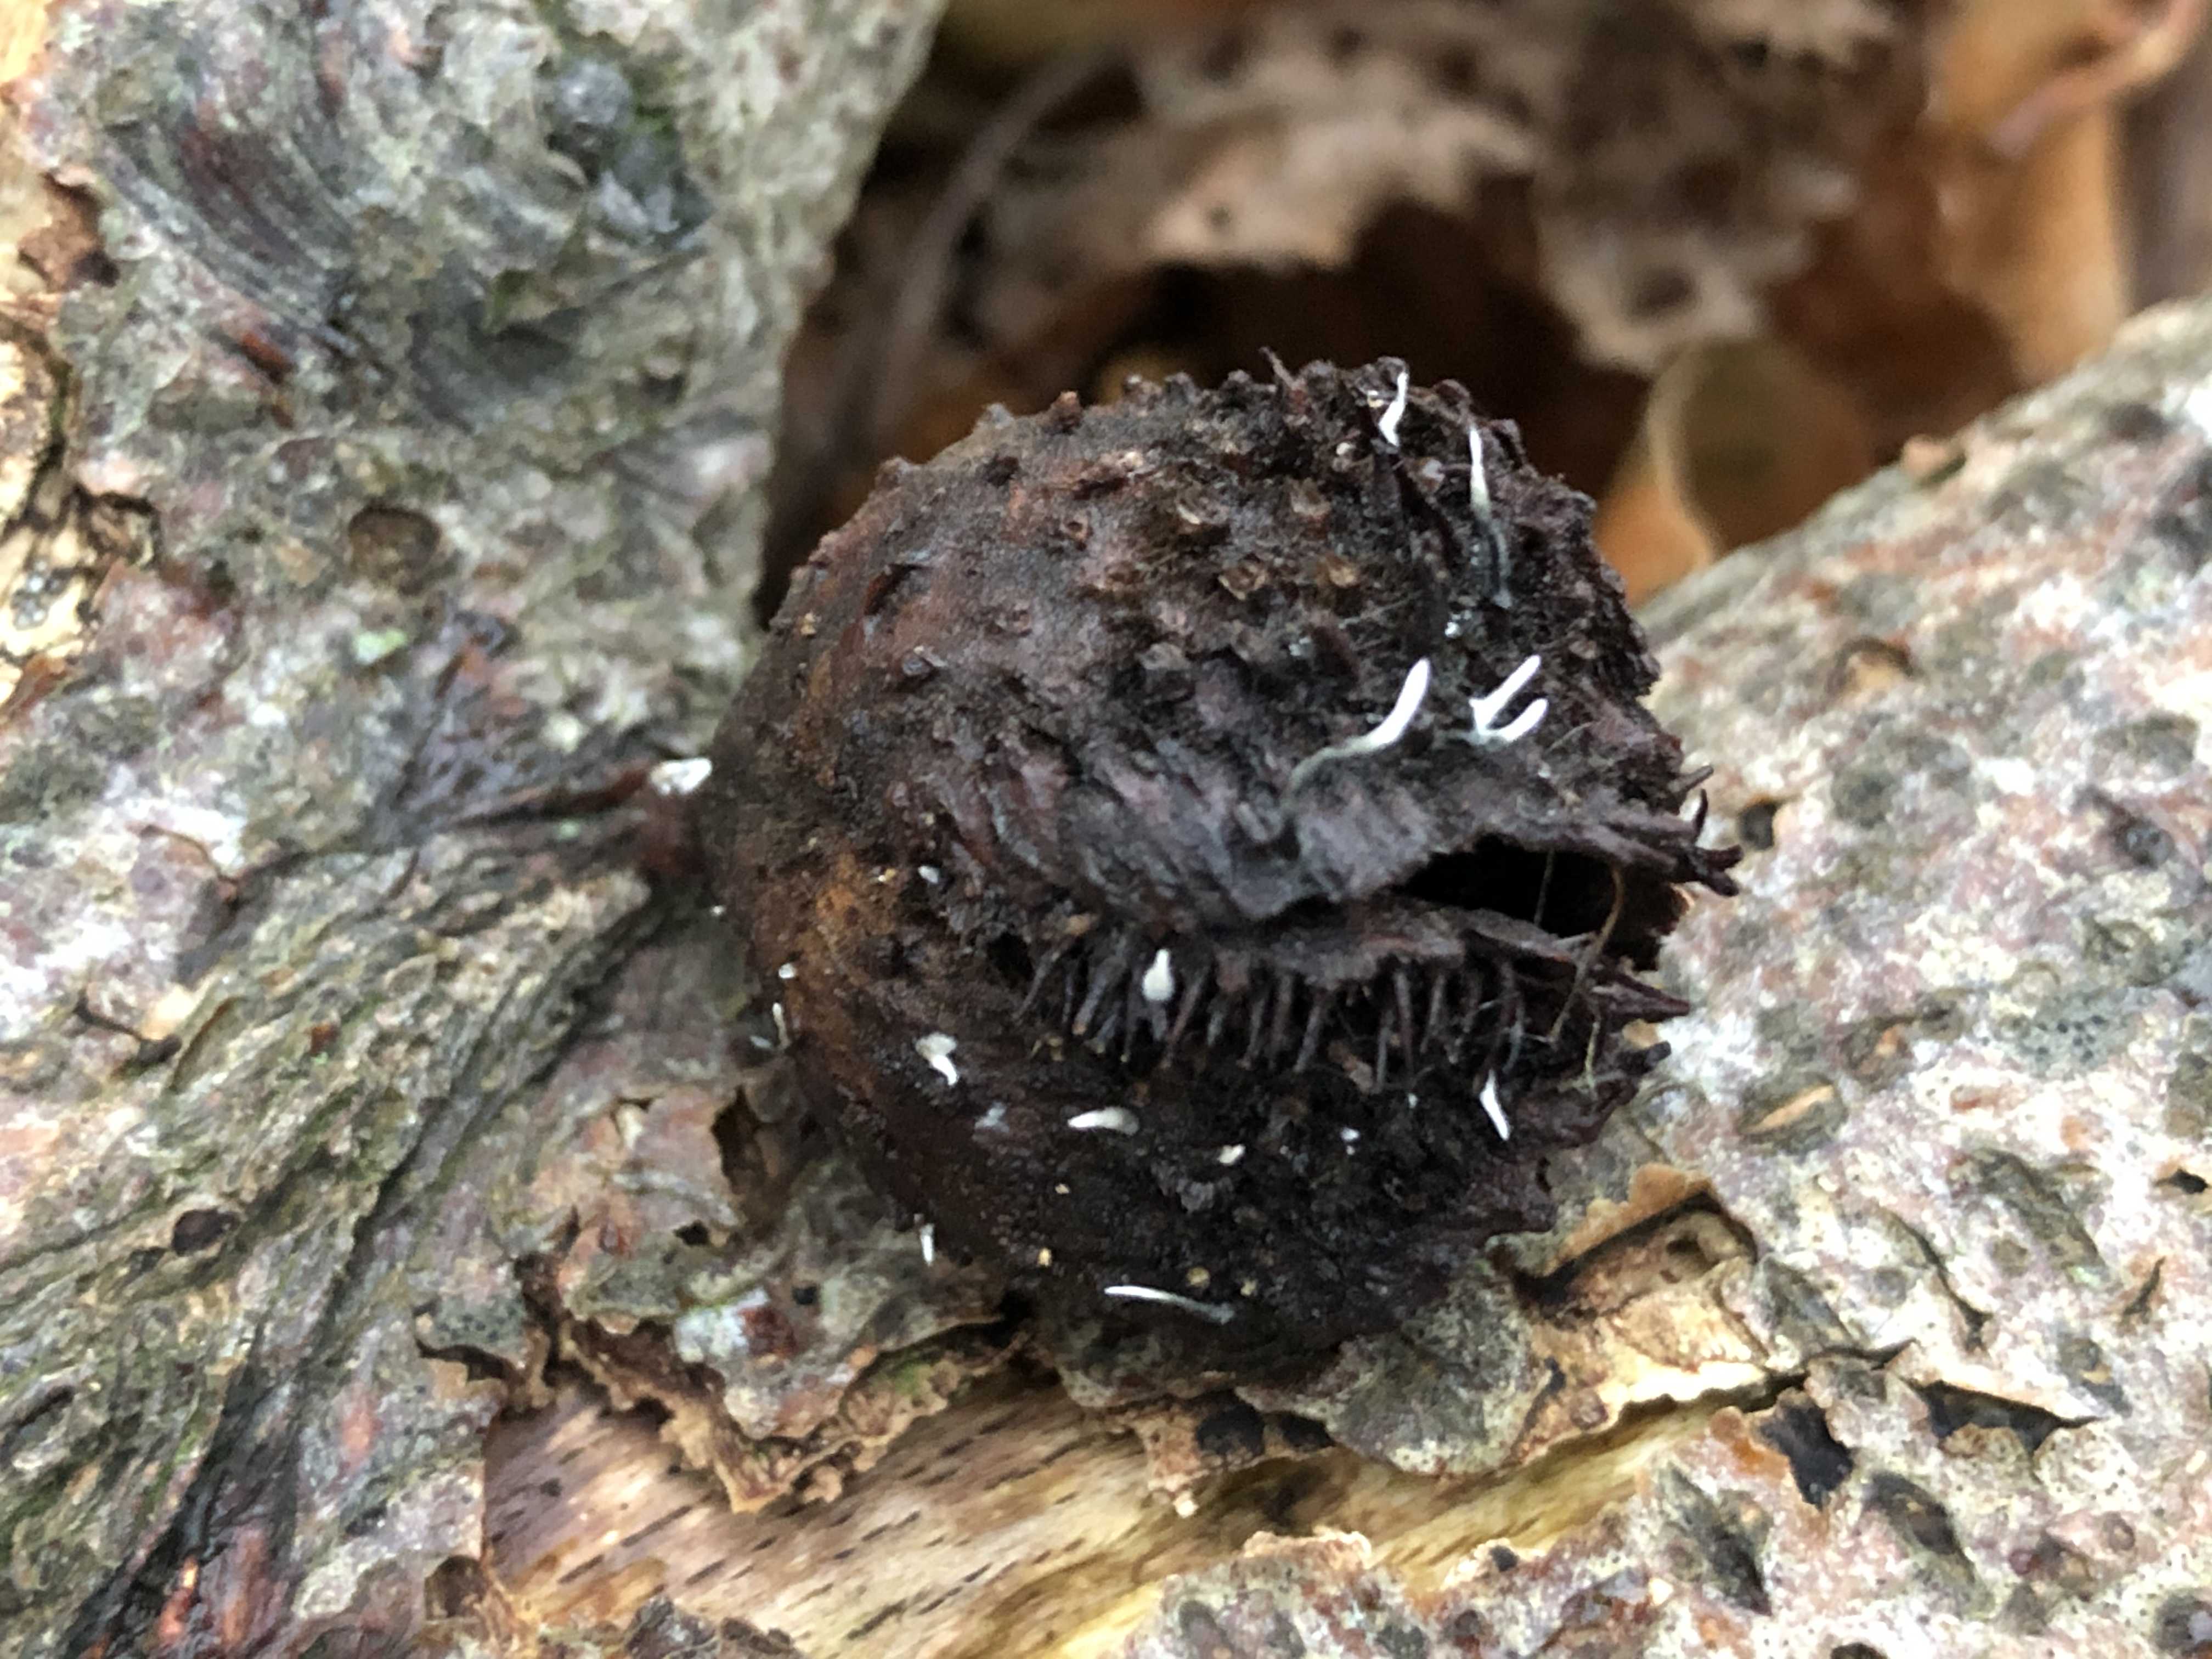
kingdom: Fungi
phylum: Ascomycota
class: Sordariomycetes
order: Xylariales
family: Xylariaceae
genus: Xylaria
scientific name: Xylaria carpophila
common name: bogskål-stødsvamp
